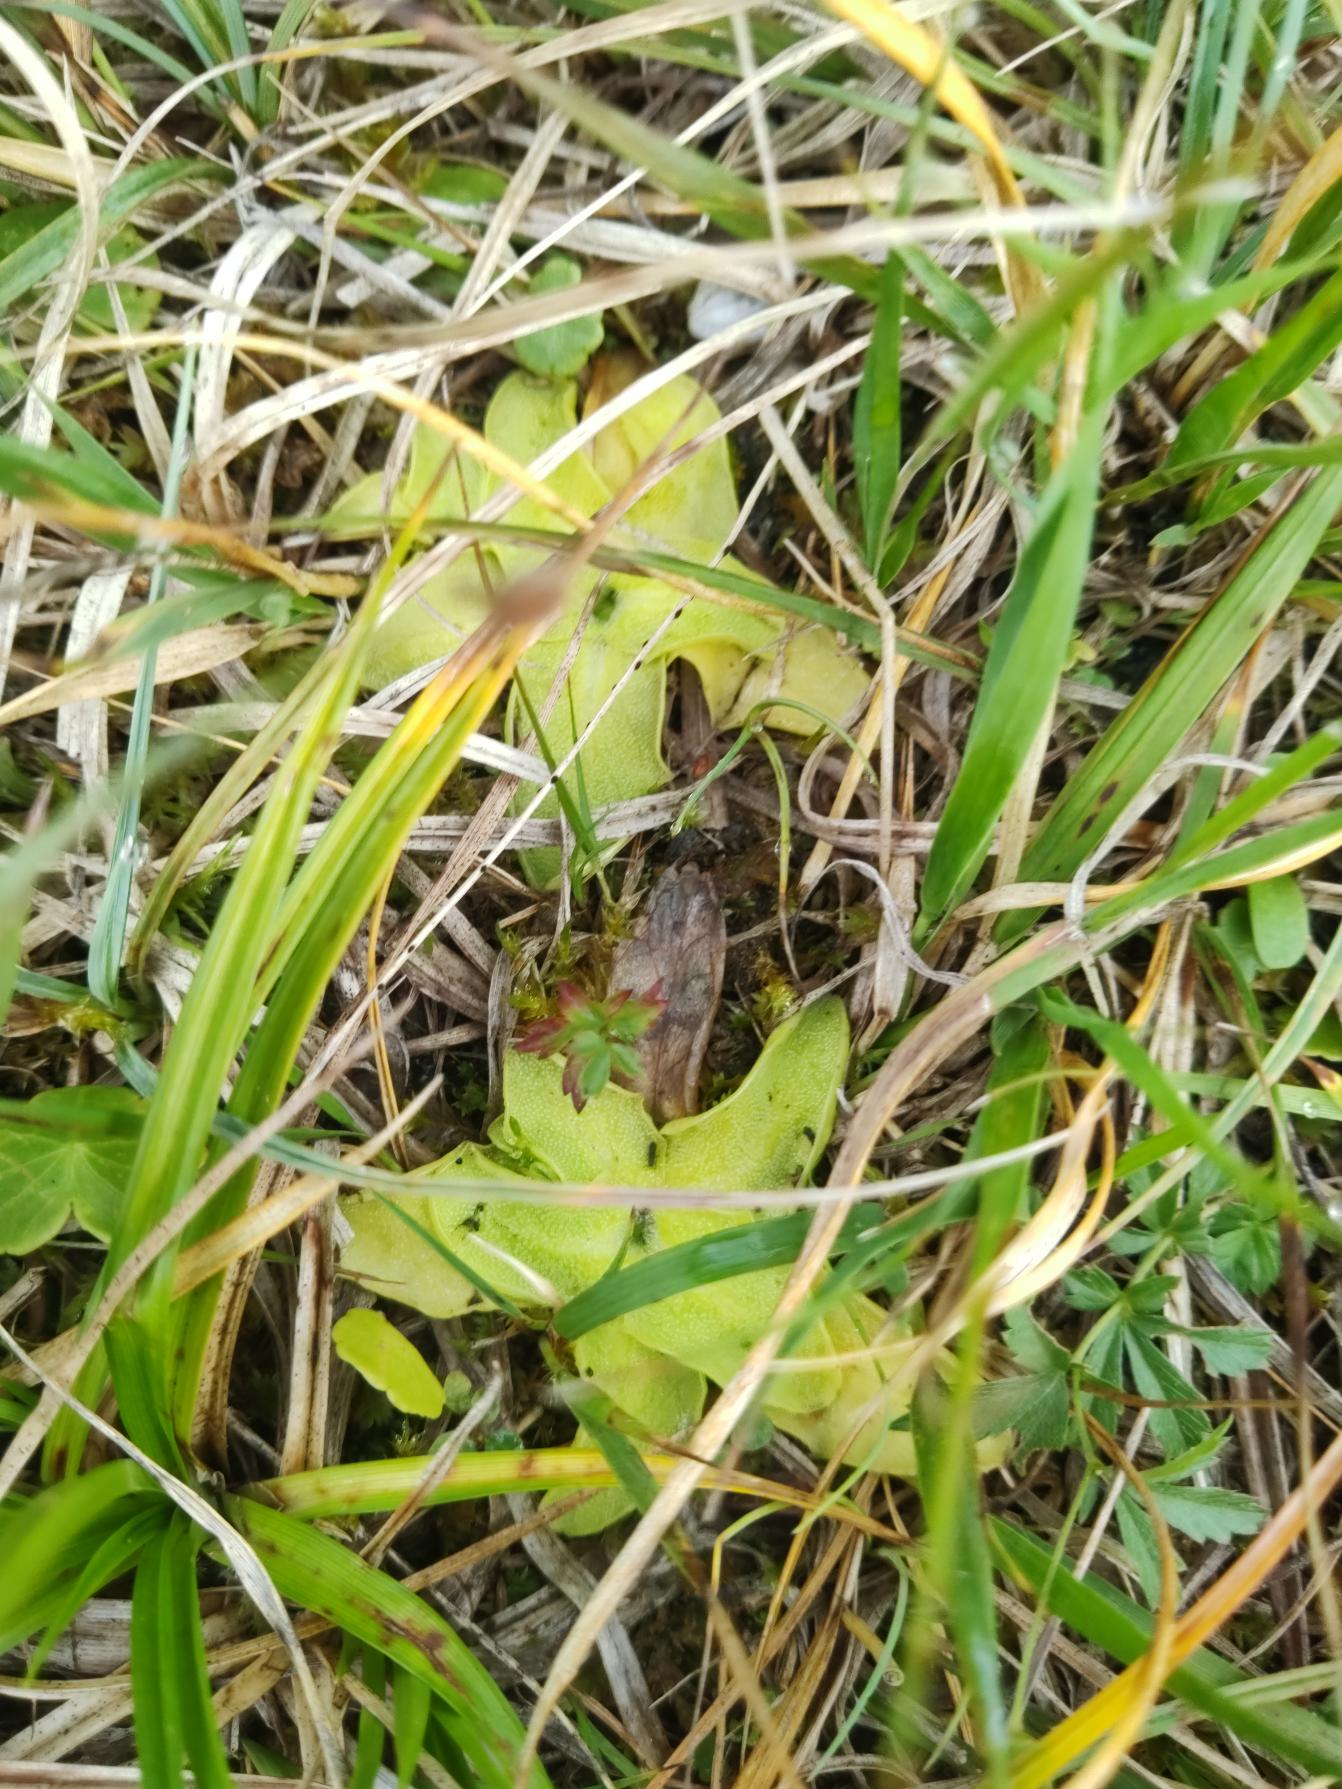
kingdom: Plantae
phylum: Tracheophyta
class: Magnoliopsida
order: Lamiales
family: Lentibulariaceae
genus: Pinguicula
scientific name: Pinguicula vulgaris
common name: Vibefedt
